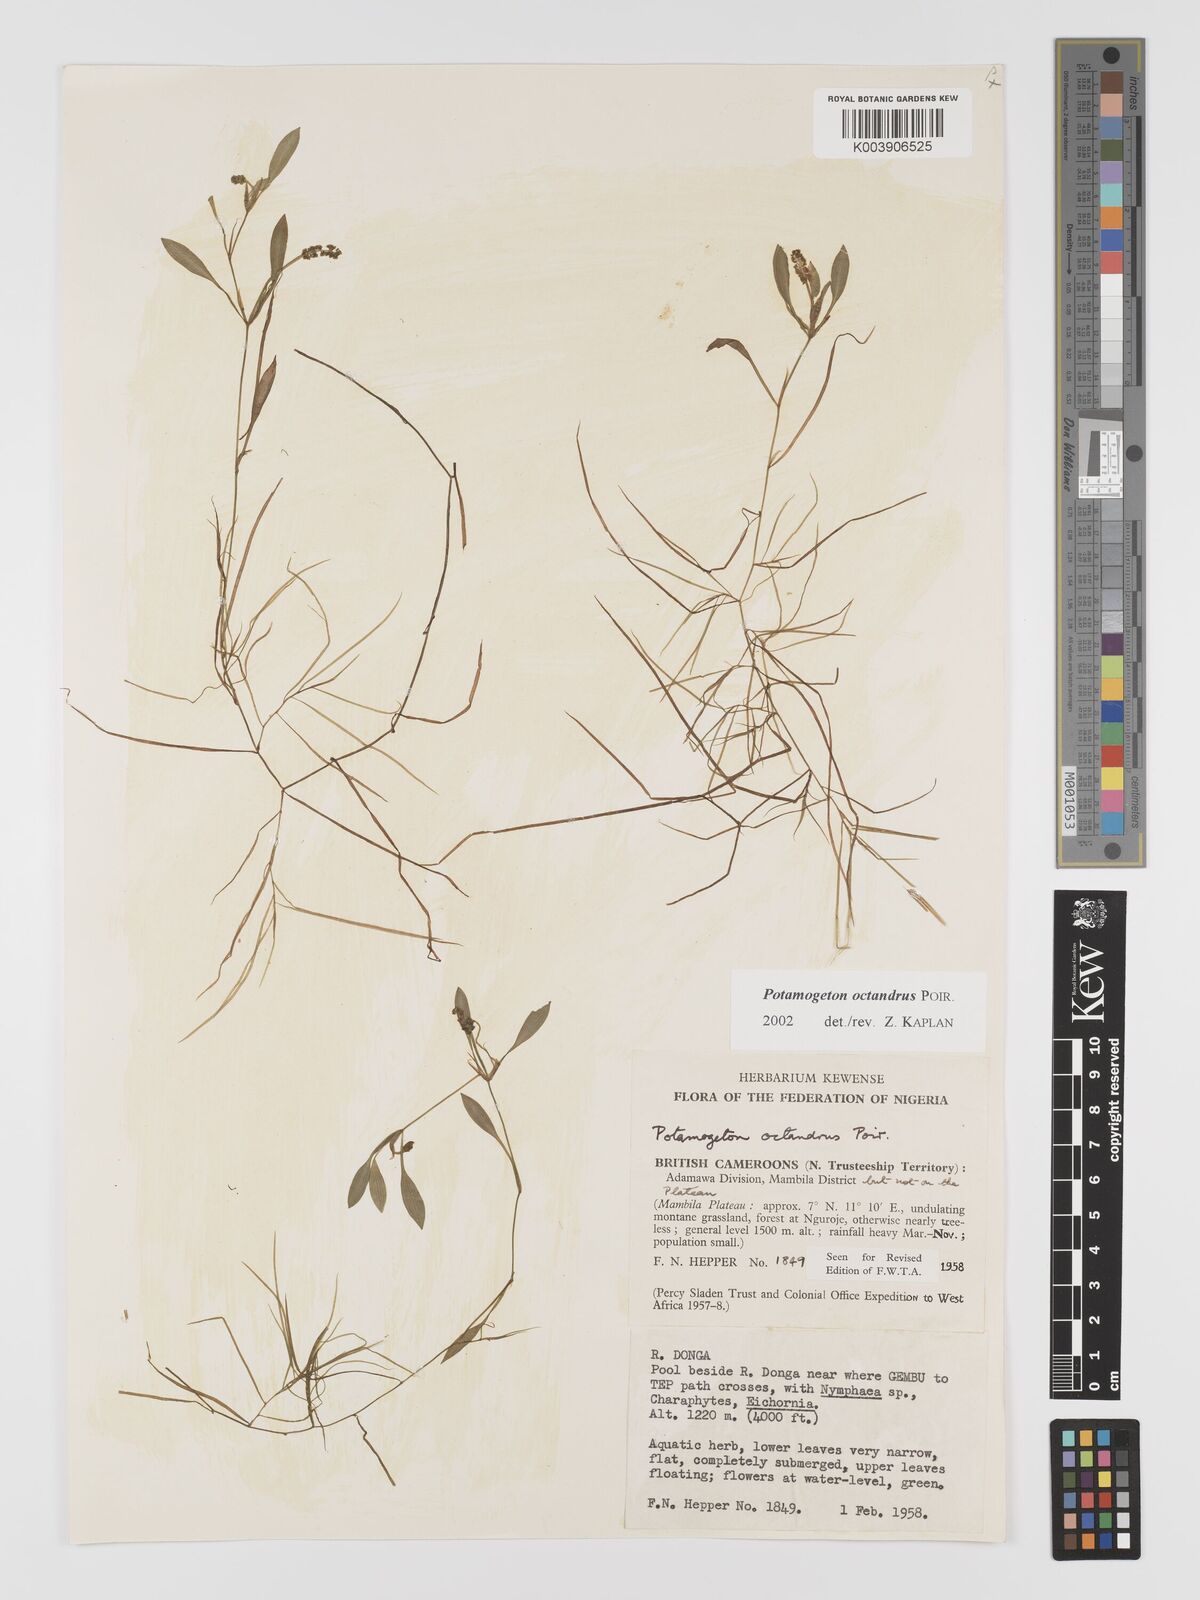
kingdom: Plantae
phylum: Tracheophyta
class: Liliopsida
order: Alismatales
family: Potamogetonaceae
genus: Potamogeton
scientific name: Potamogeton octandrus
